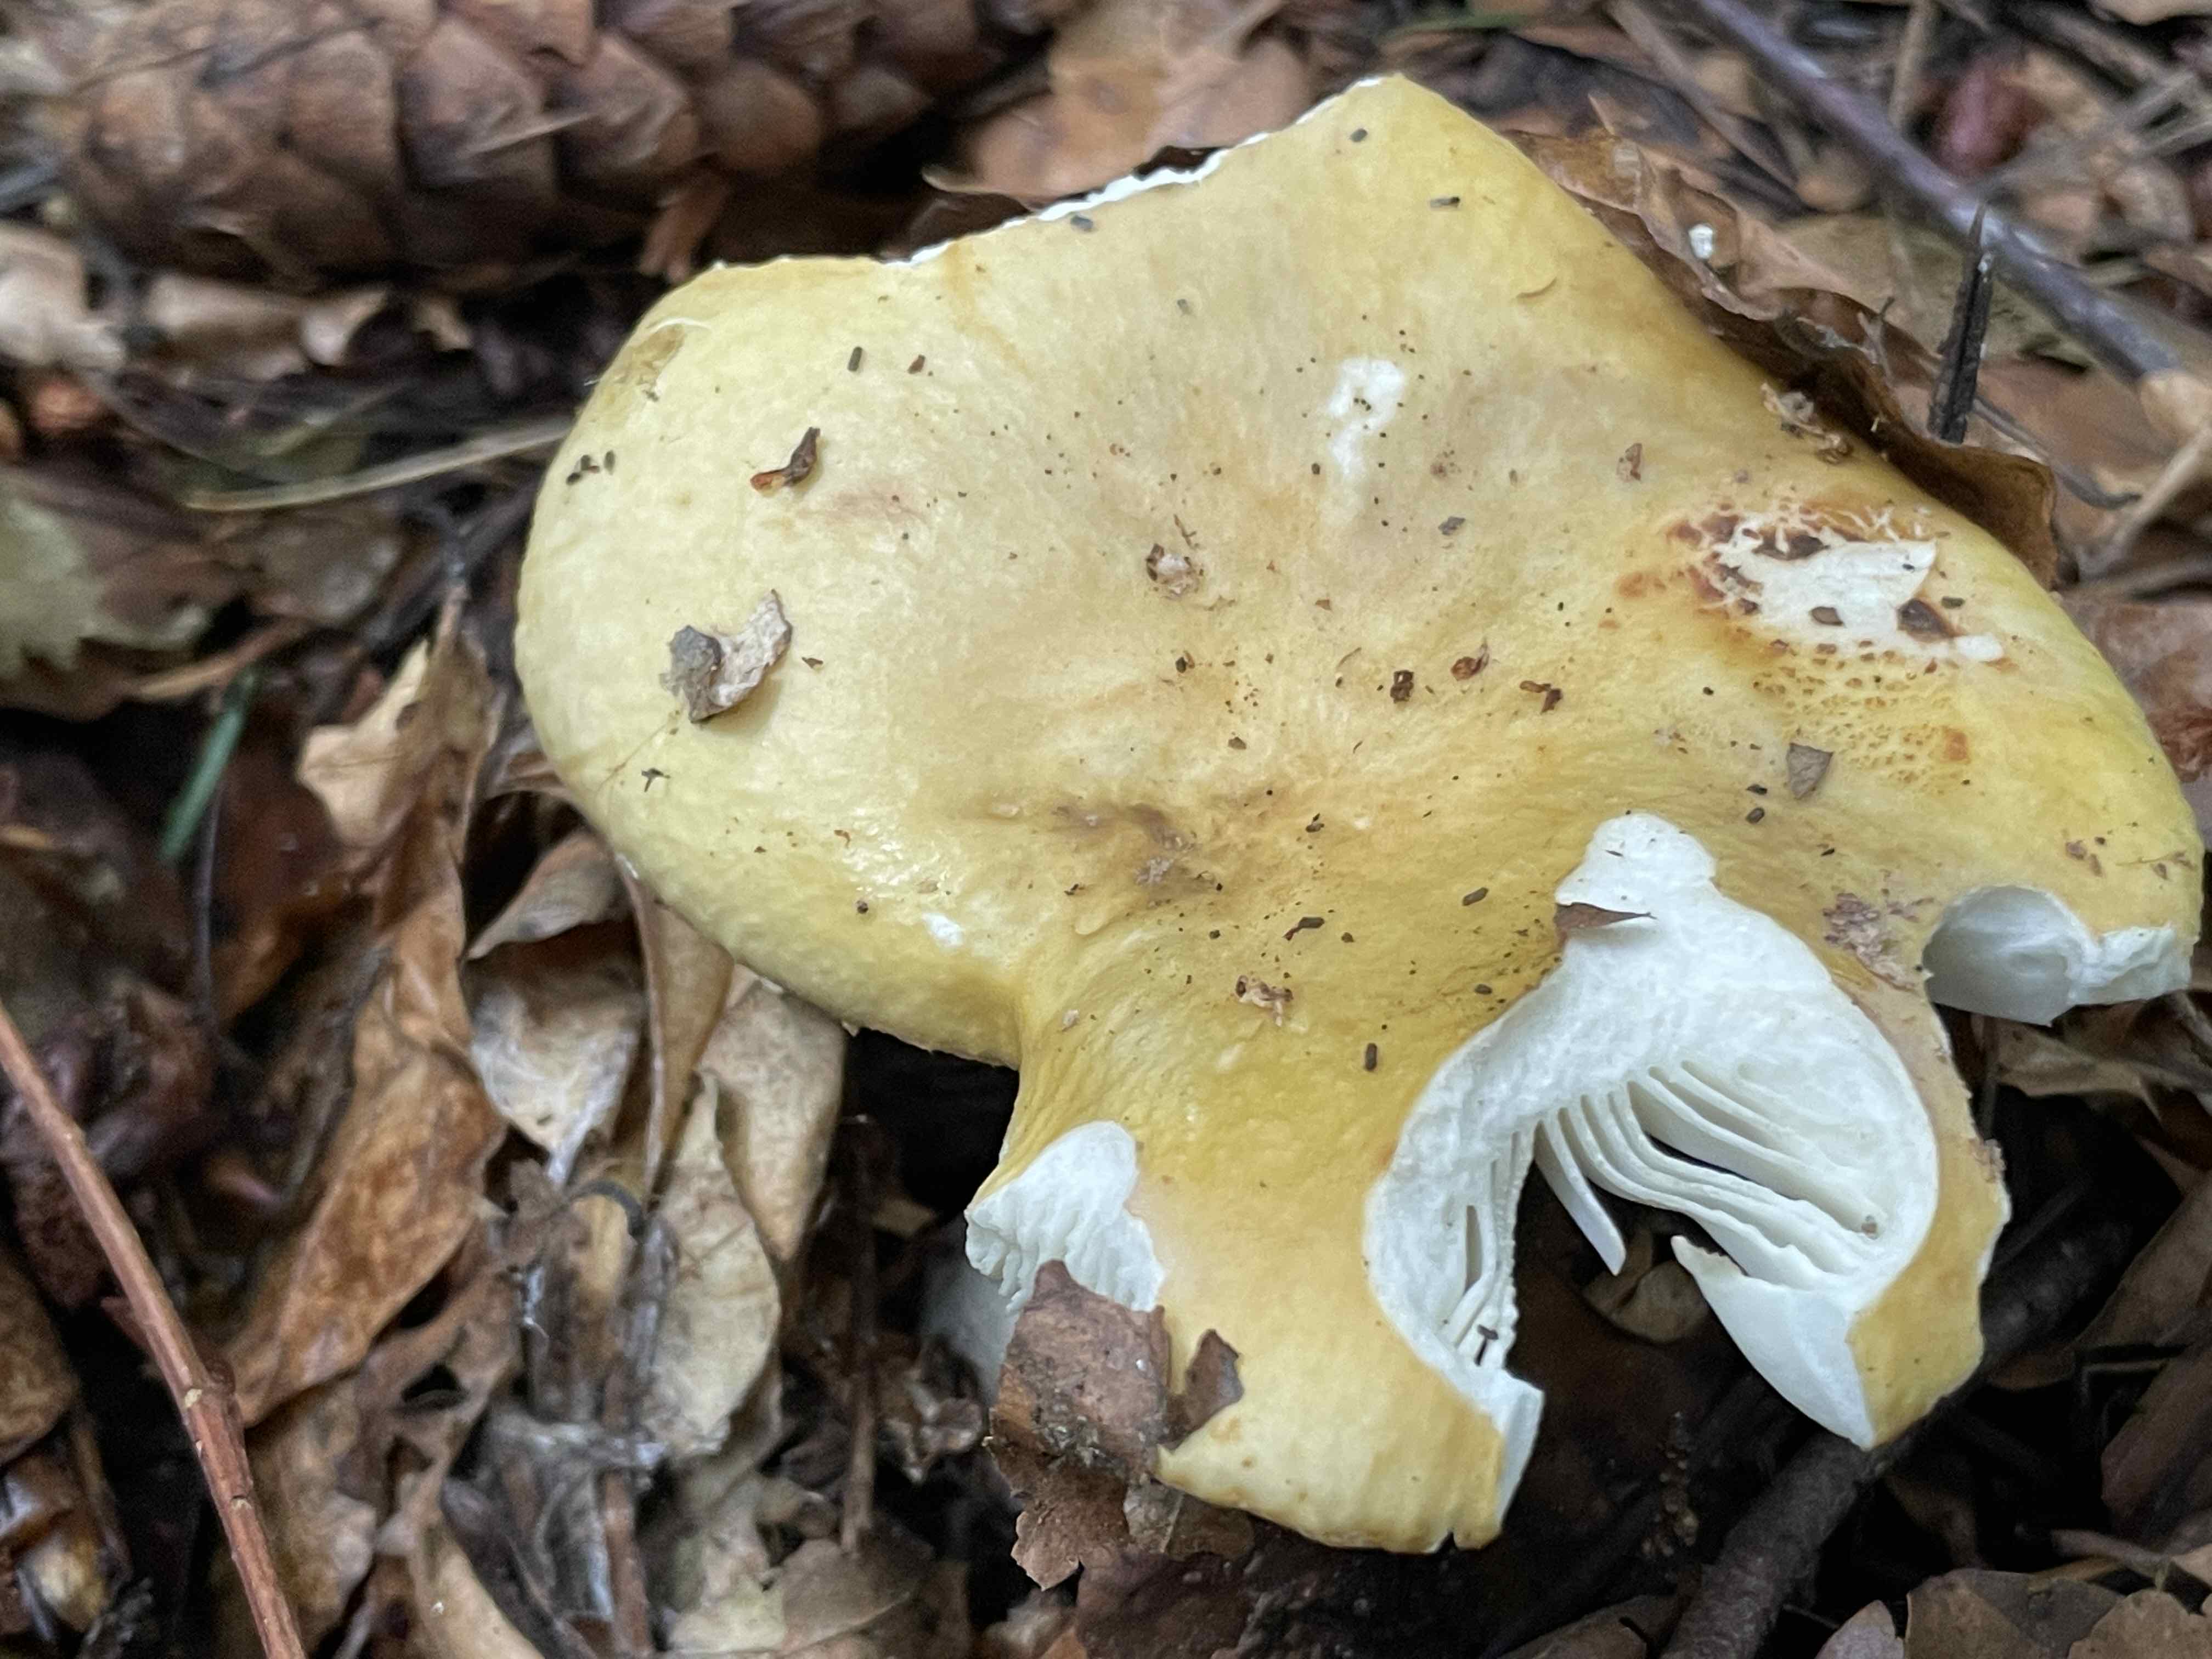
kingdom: Fungi
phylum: Basidiomycota
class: Agaricomycetes
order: Russulales
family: Russulaceae
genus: Russula
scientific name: Russula ochroleuca
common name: okkergul skørhat
